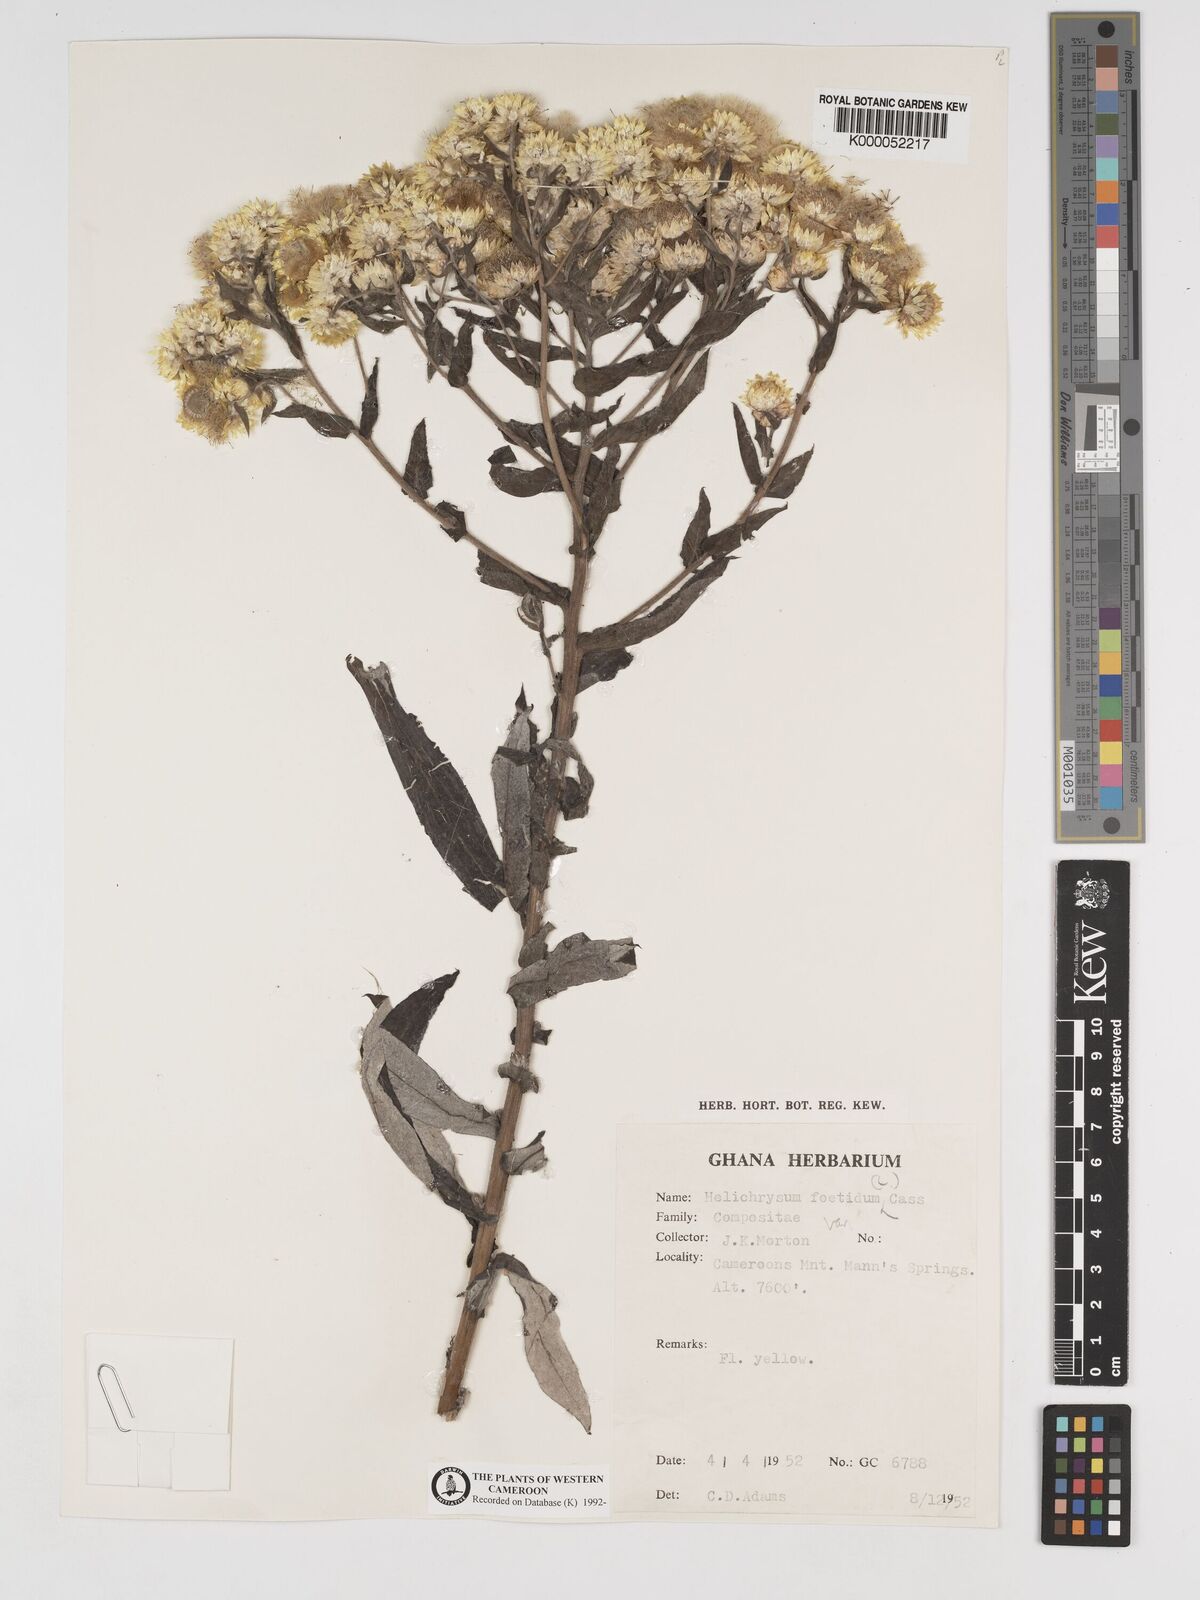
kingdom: Plantae
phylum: Tracheophyta
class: Magnoliopsida
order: Asterales
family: Asteraceae
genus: Helichrysum
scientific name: Helichrysum foetidum
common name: Stinking everlasting
